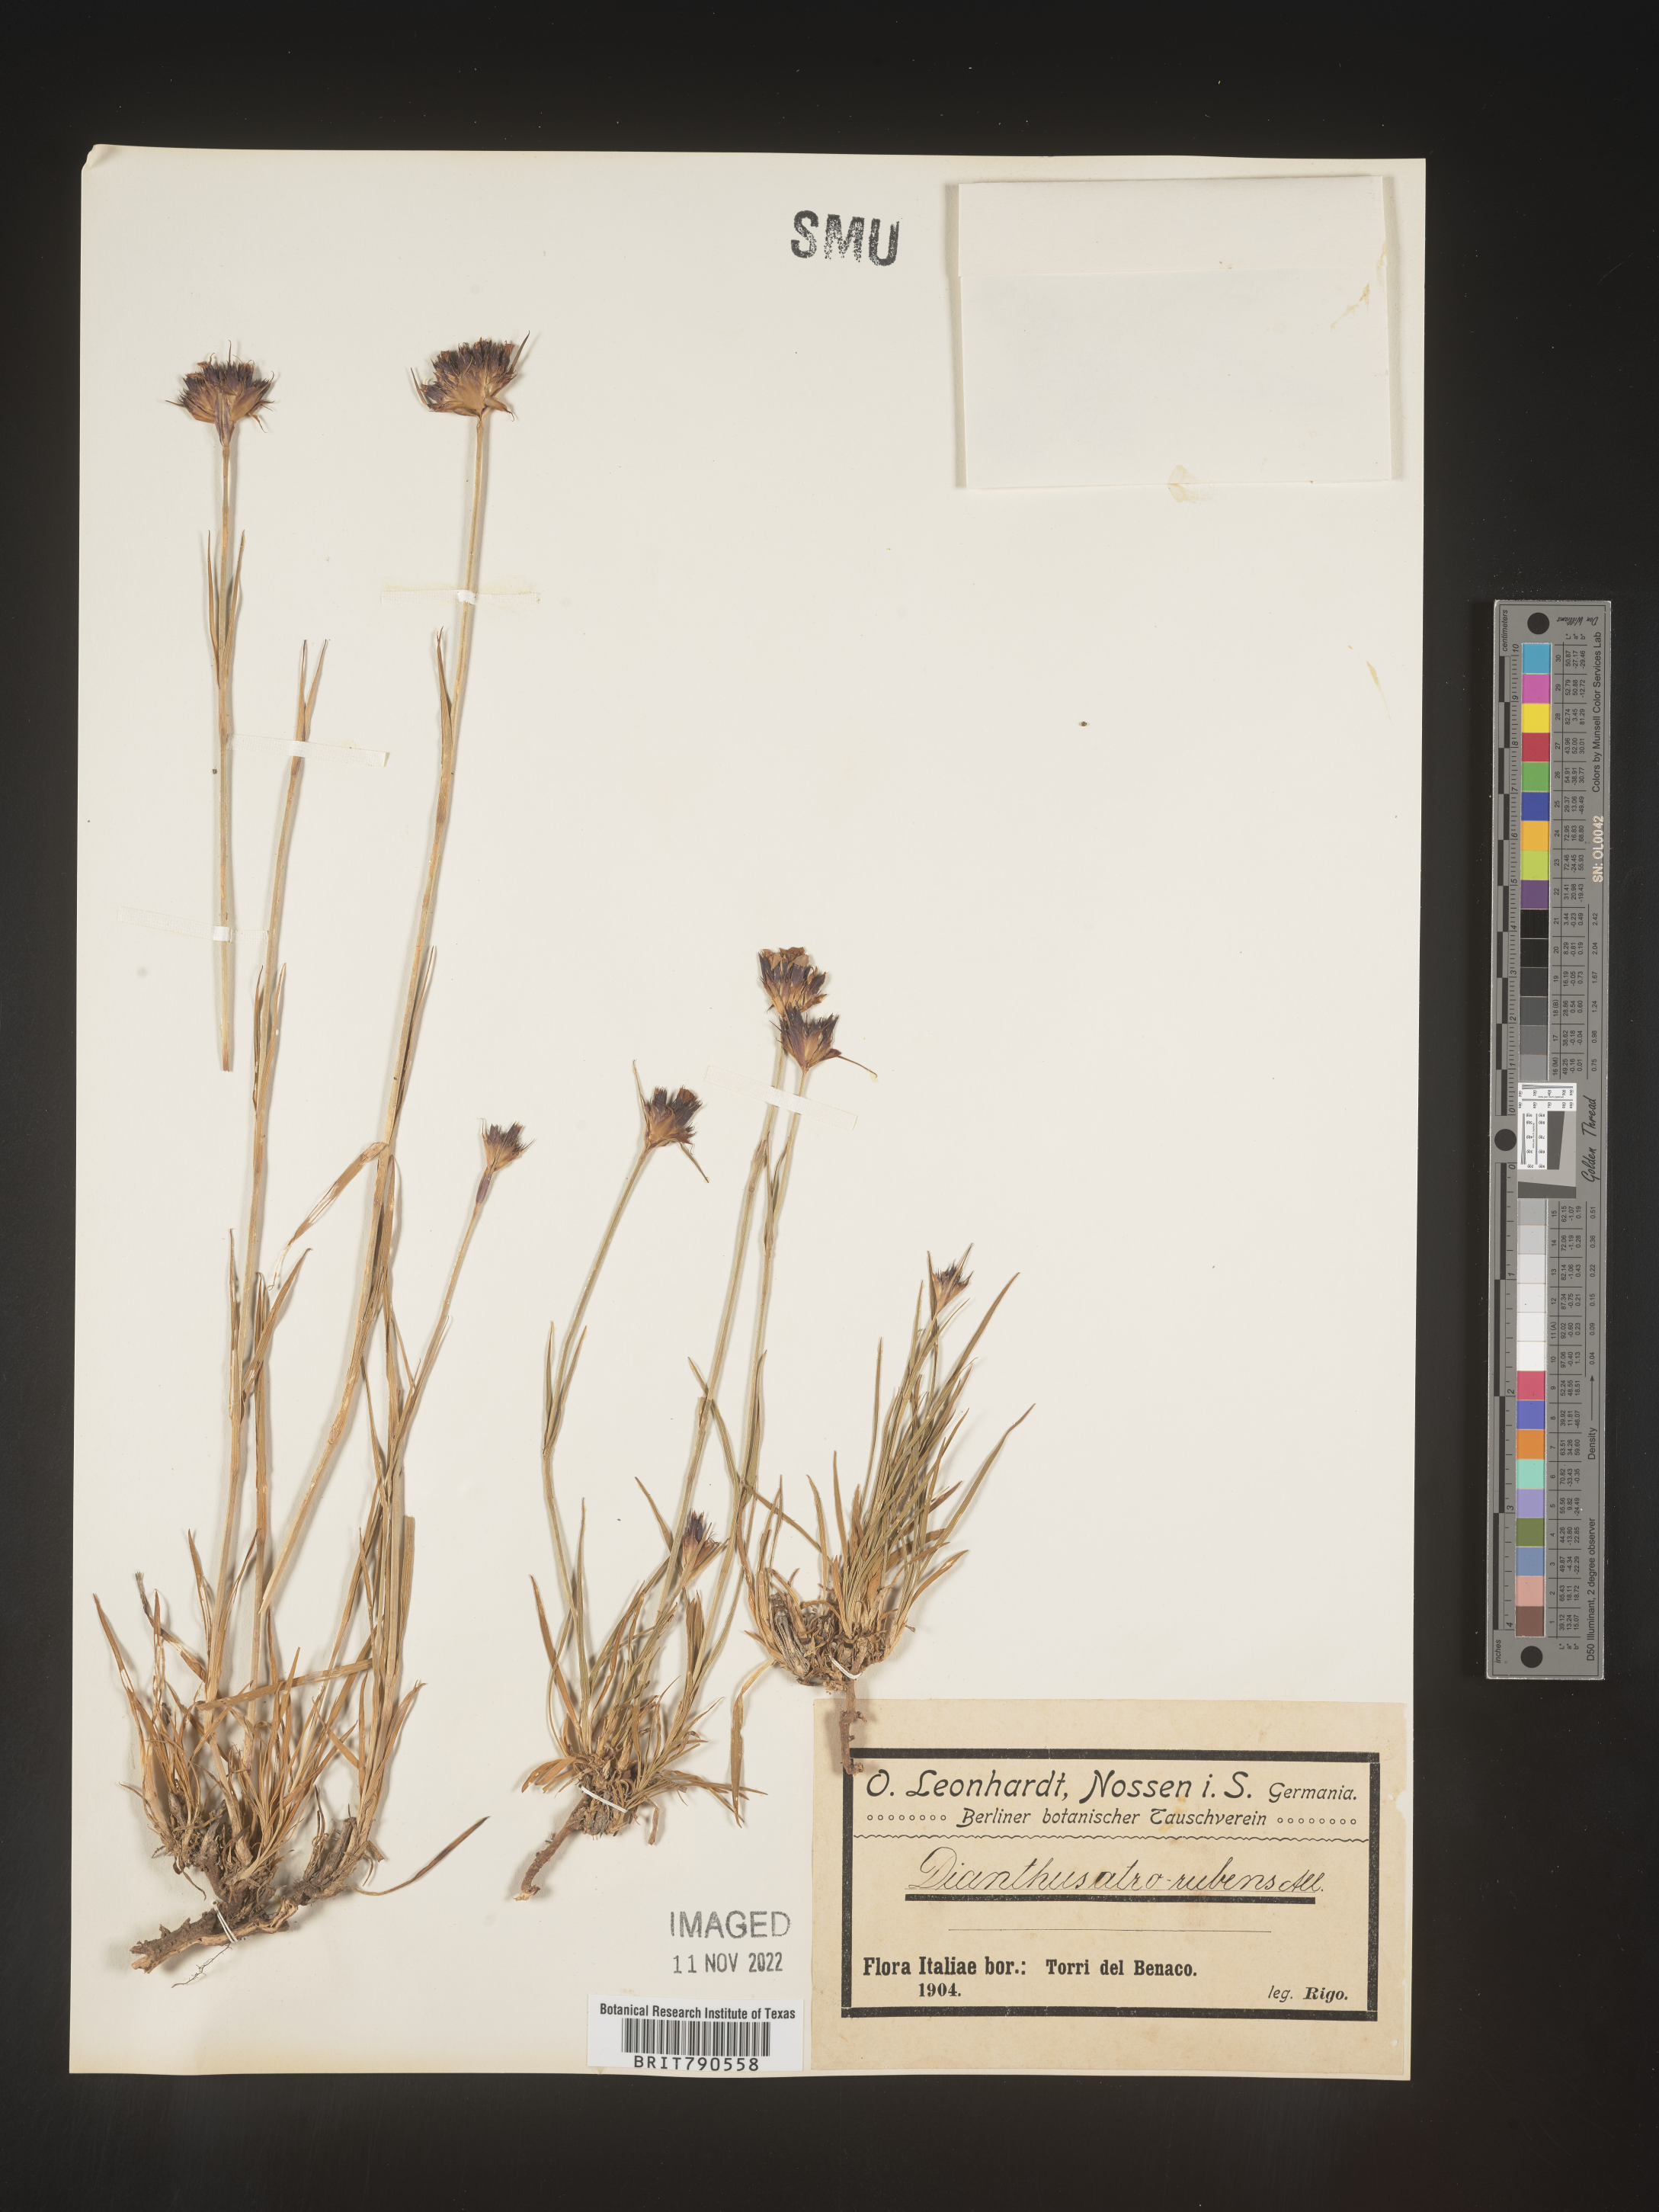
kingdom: Plantae
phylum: Tracheophyta
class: Magnoliopsida
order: Caryophyllales
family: Caryophyllaceae
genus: Dianthus
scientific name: Dianthus
